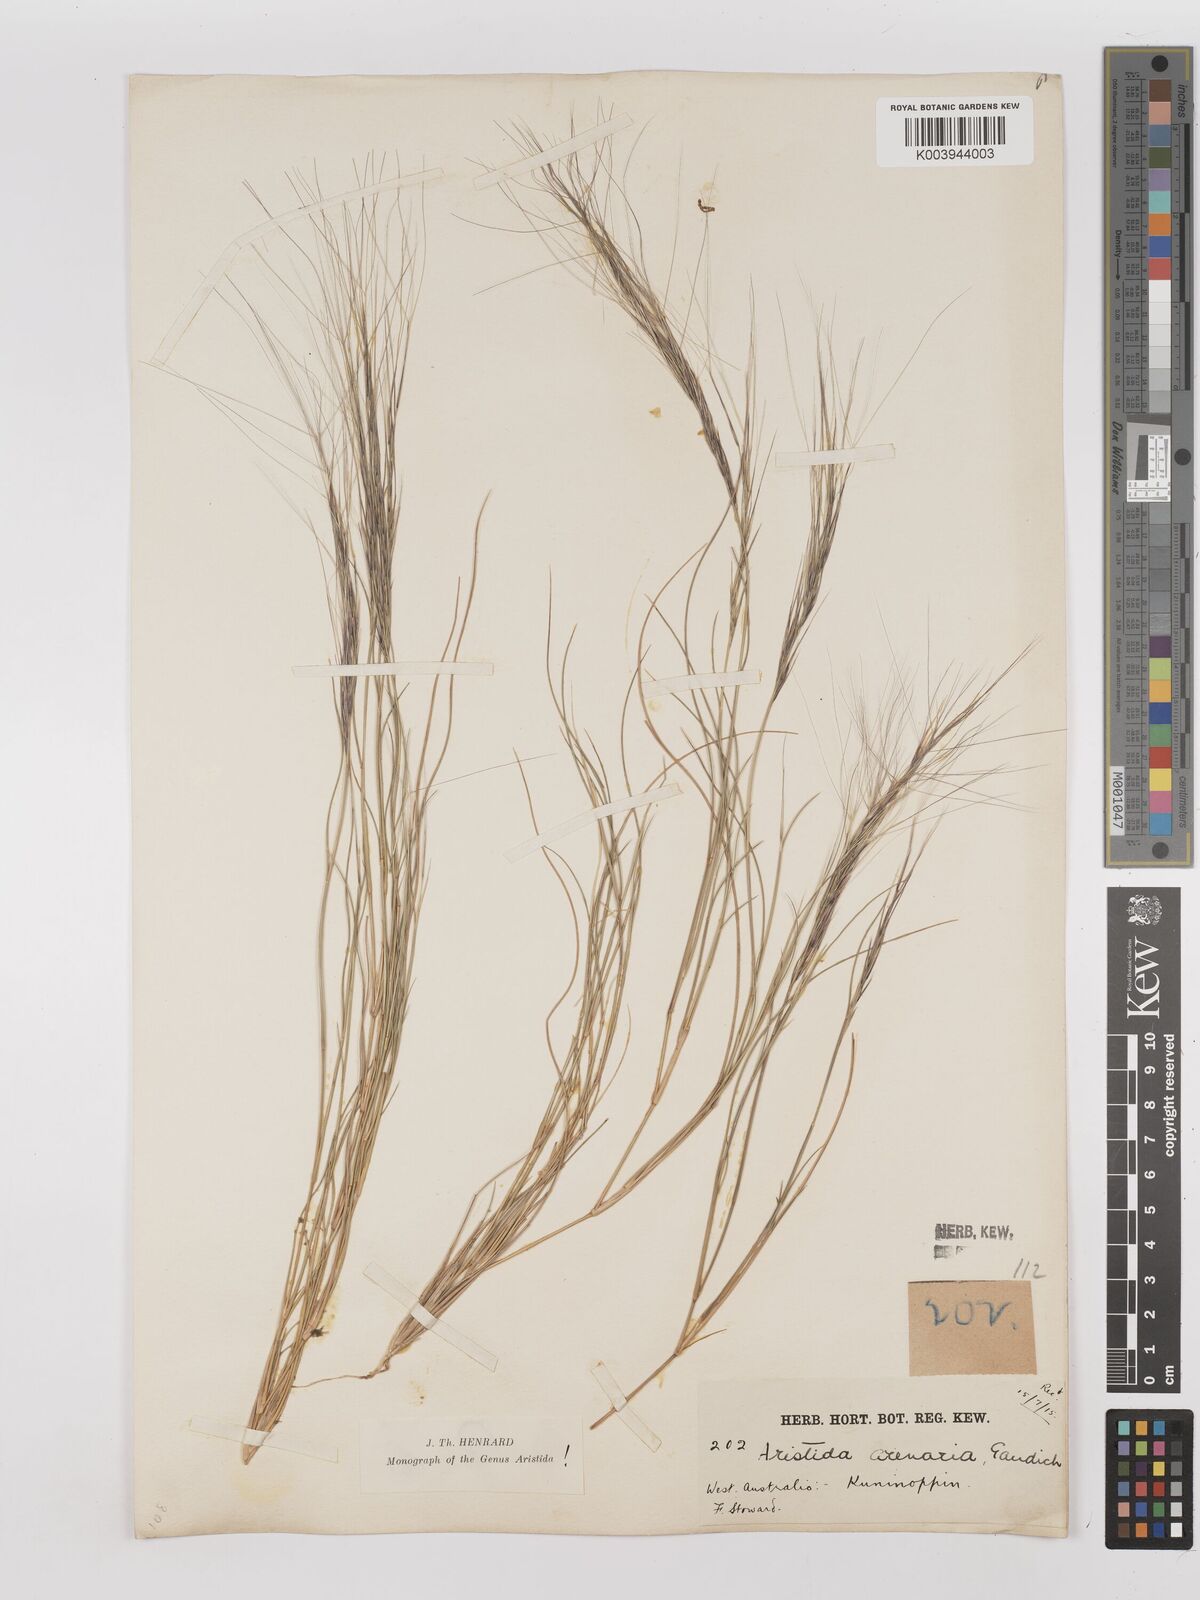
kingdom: Plantae
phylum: Tracheophyta
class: Liliopsida
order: Poales
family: Poaceae
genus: Aristida
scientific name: Aristida contorta
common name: Bunch kerosene grass
